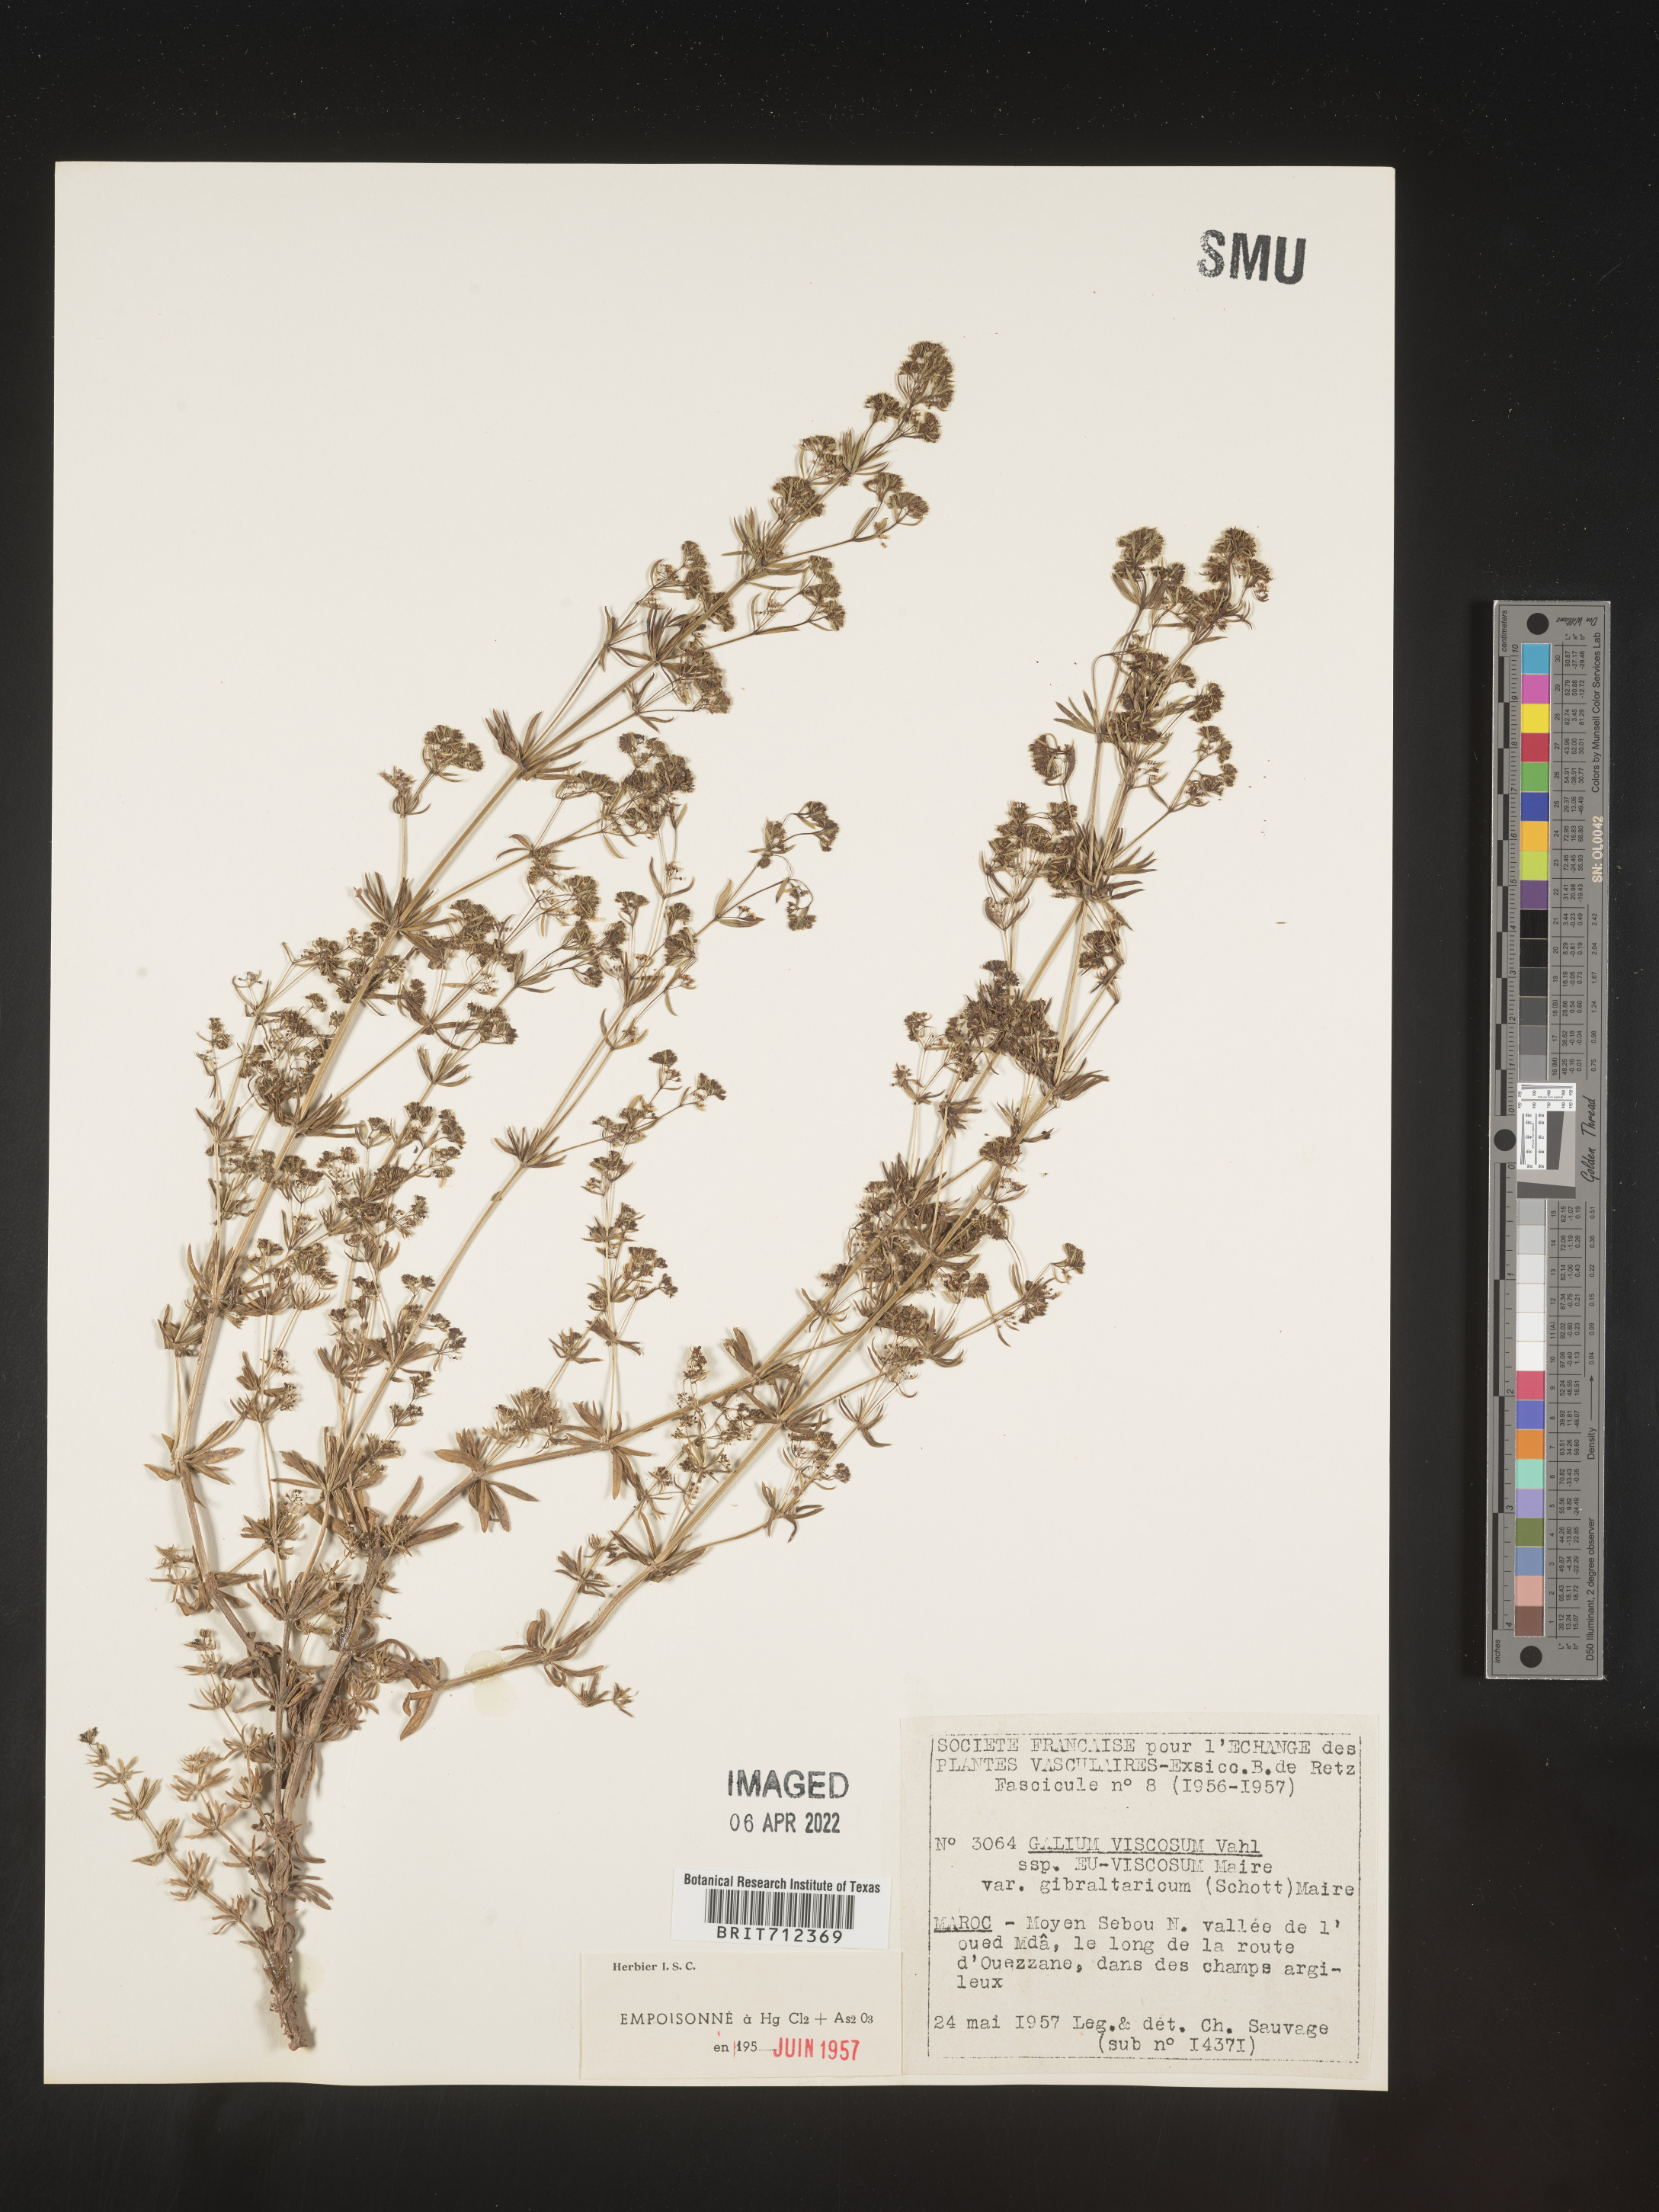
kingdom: Plantae
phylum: Tracheophyta
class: Magnoliopsida
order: Gentianales
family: Rubiaceae
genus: Galium
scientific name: Galium
